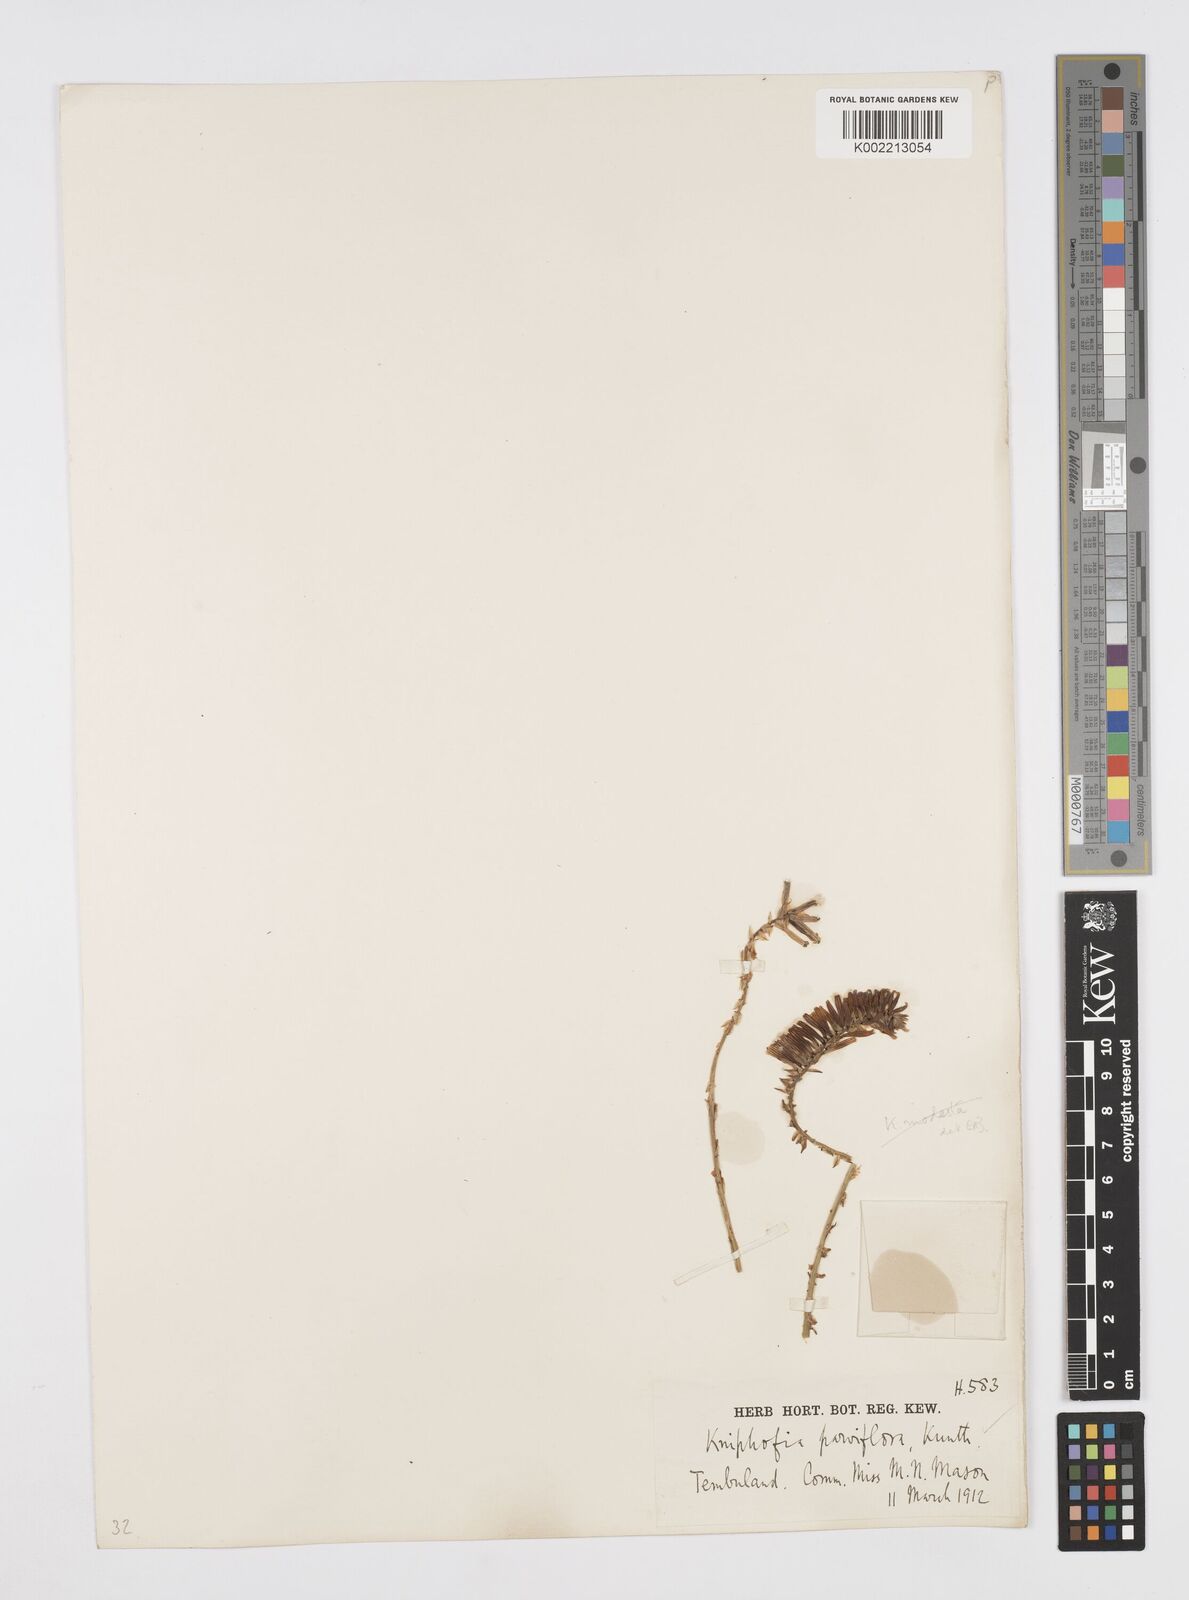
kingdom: Plantae
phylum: Tracheophyta
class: Liliopsida
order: Asparagales
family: Asphodelaceae
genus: Kniphofia
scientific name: Kniphofia parviflora
